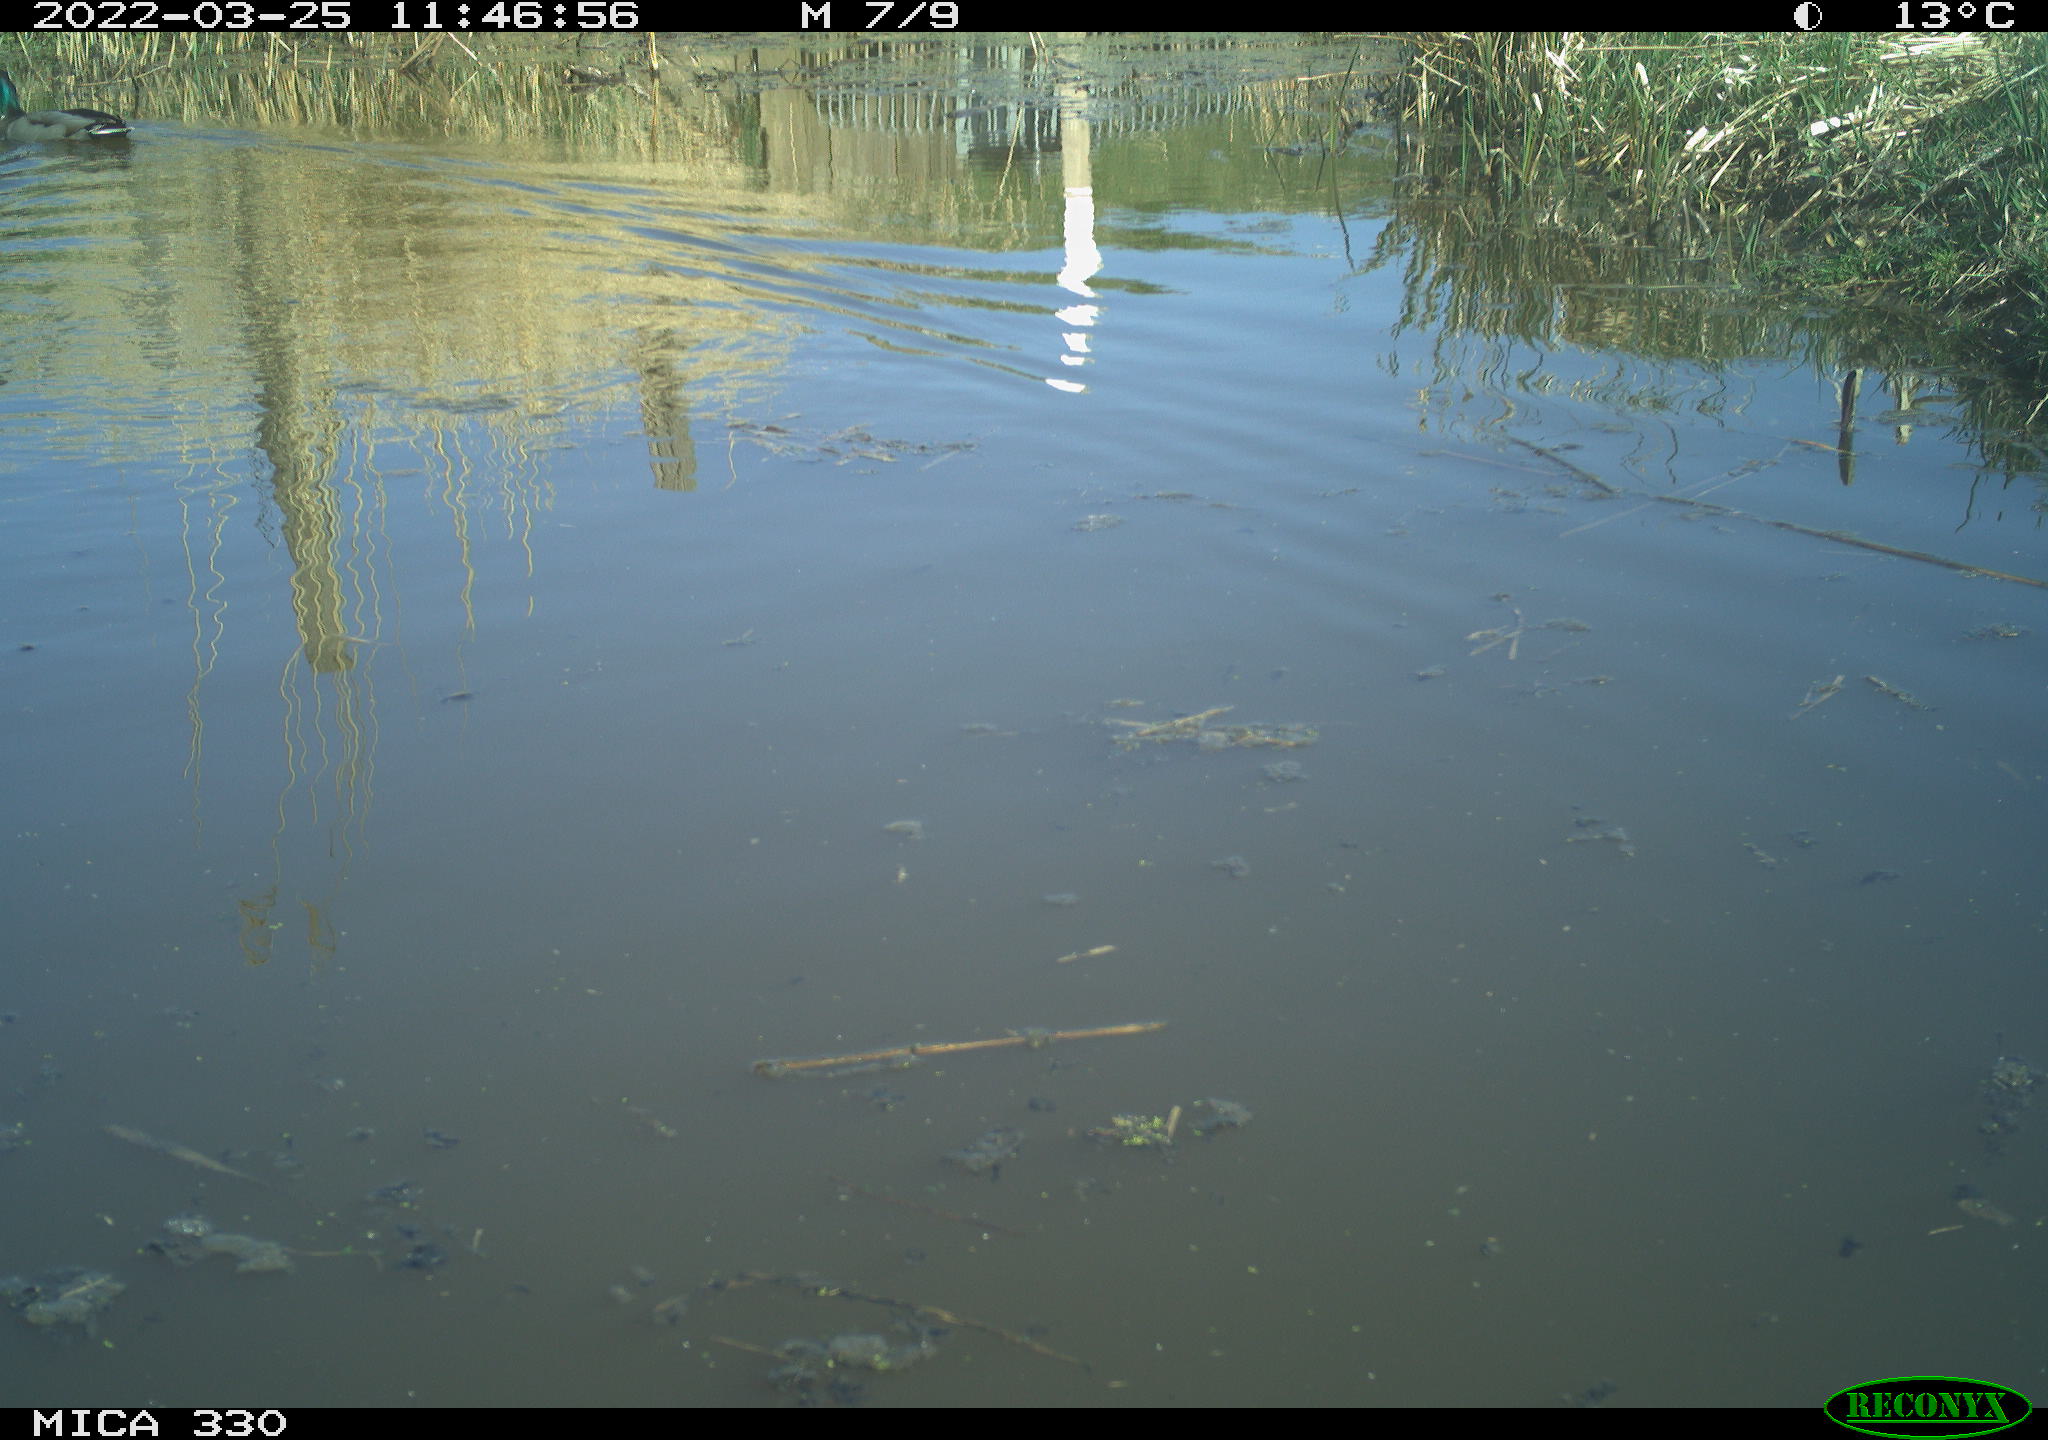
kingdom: Animalia
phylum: Chordata
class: Aves
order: Anseriformes
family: Anatidae
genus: Anas
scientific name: Anas platyrhynchos
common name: Mallard
